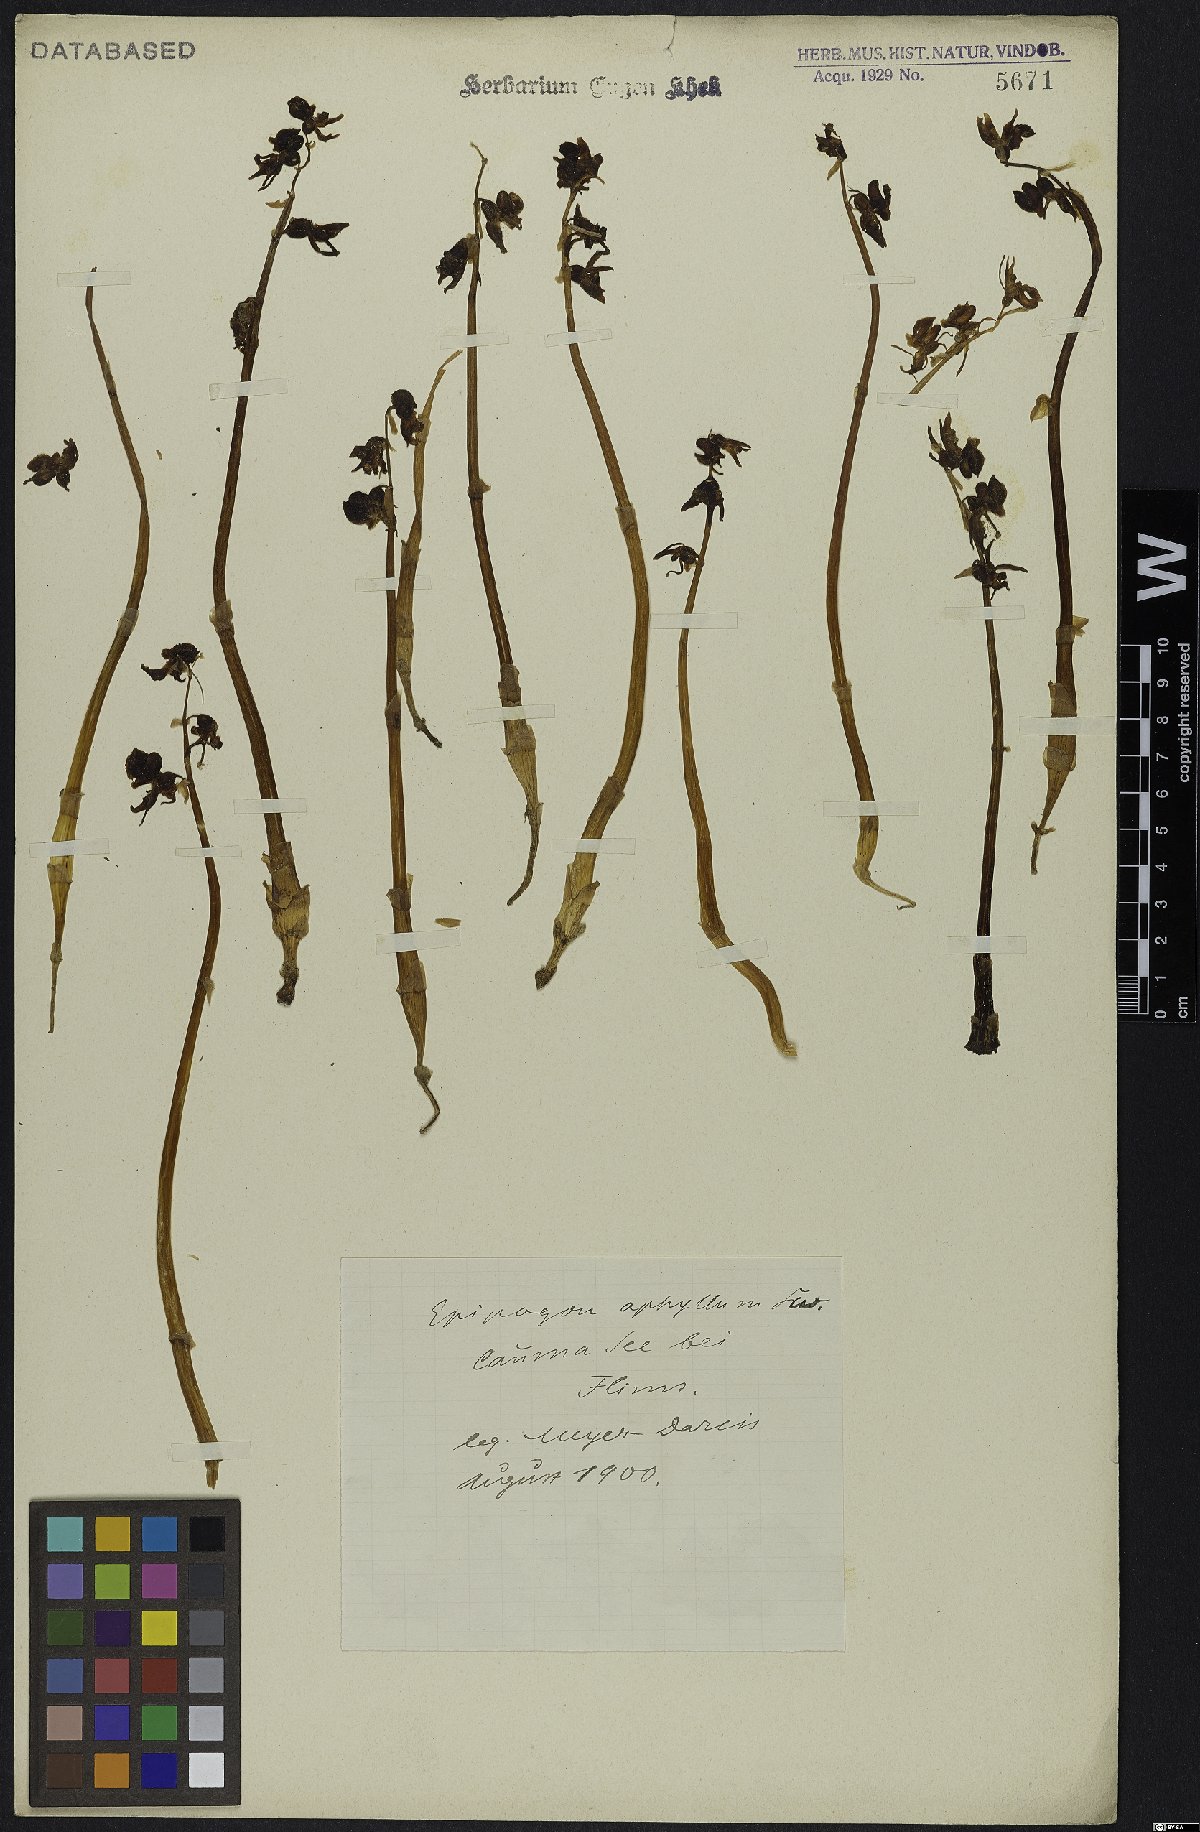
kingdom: Plantae
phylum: Tracheophyta
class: Liliopsida
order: Asparagales
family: Orchidaceae
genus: Epipogium
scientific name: Epipogium aphyllum
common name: Ghost orchid
